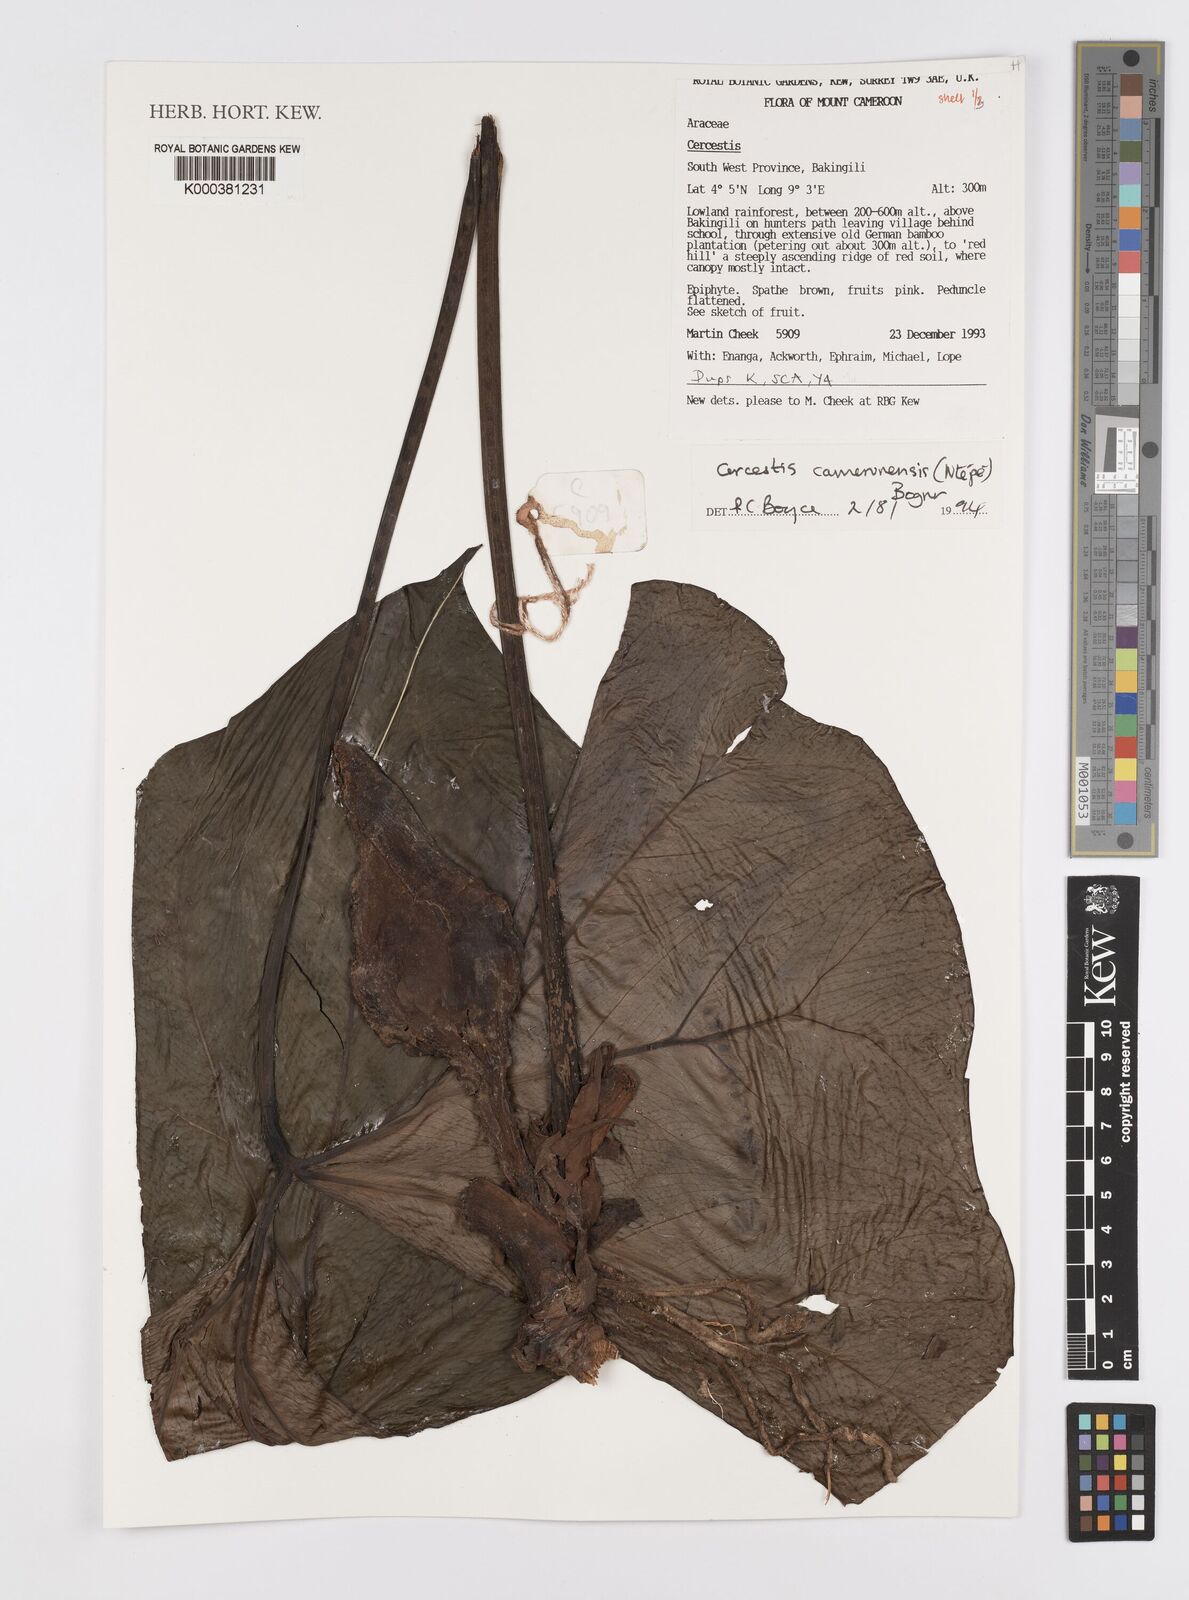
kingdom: Plantae
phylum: Tracheophyta
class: Liliopsida
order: Alismatales
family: Araceae
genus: Cercestis
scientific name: Cercestis camerunensis
